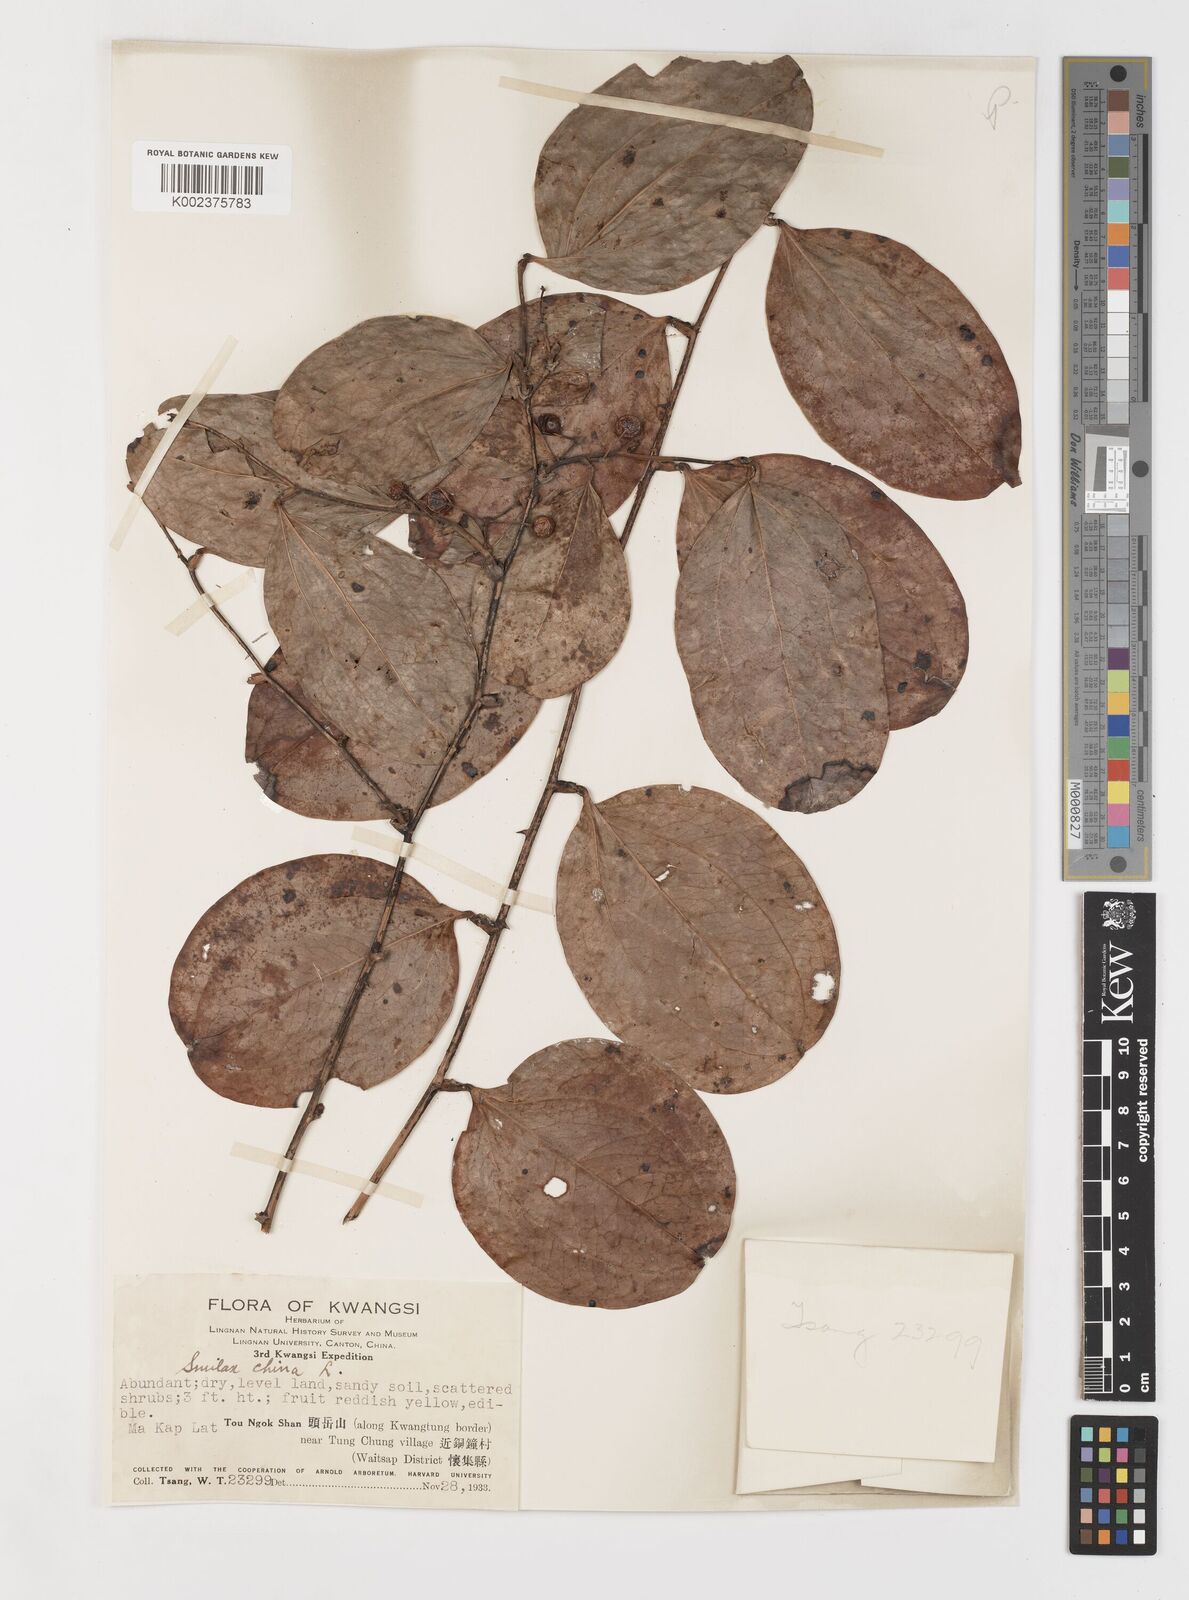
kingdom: Plantae
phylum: Tracheophyta
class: Liliopsida
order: Liliales
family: Smilacaceae
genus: Smilax
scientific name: Smilax china
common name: Chinaroot
